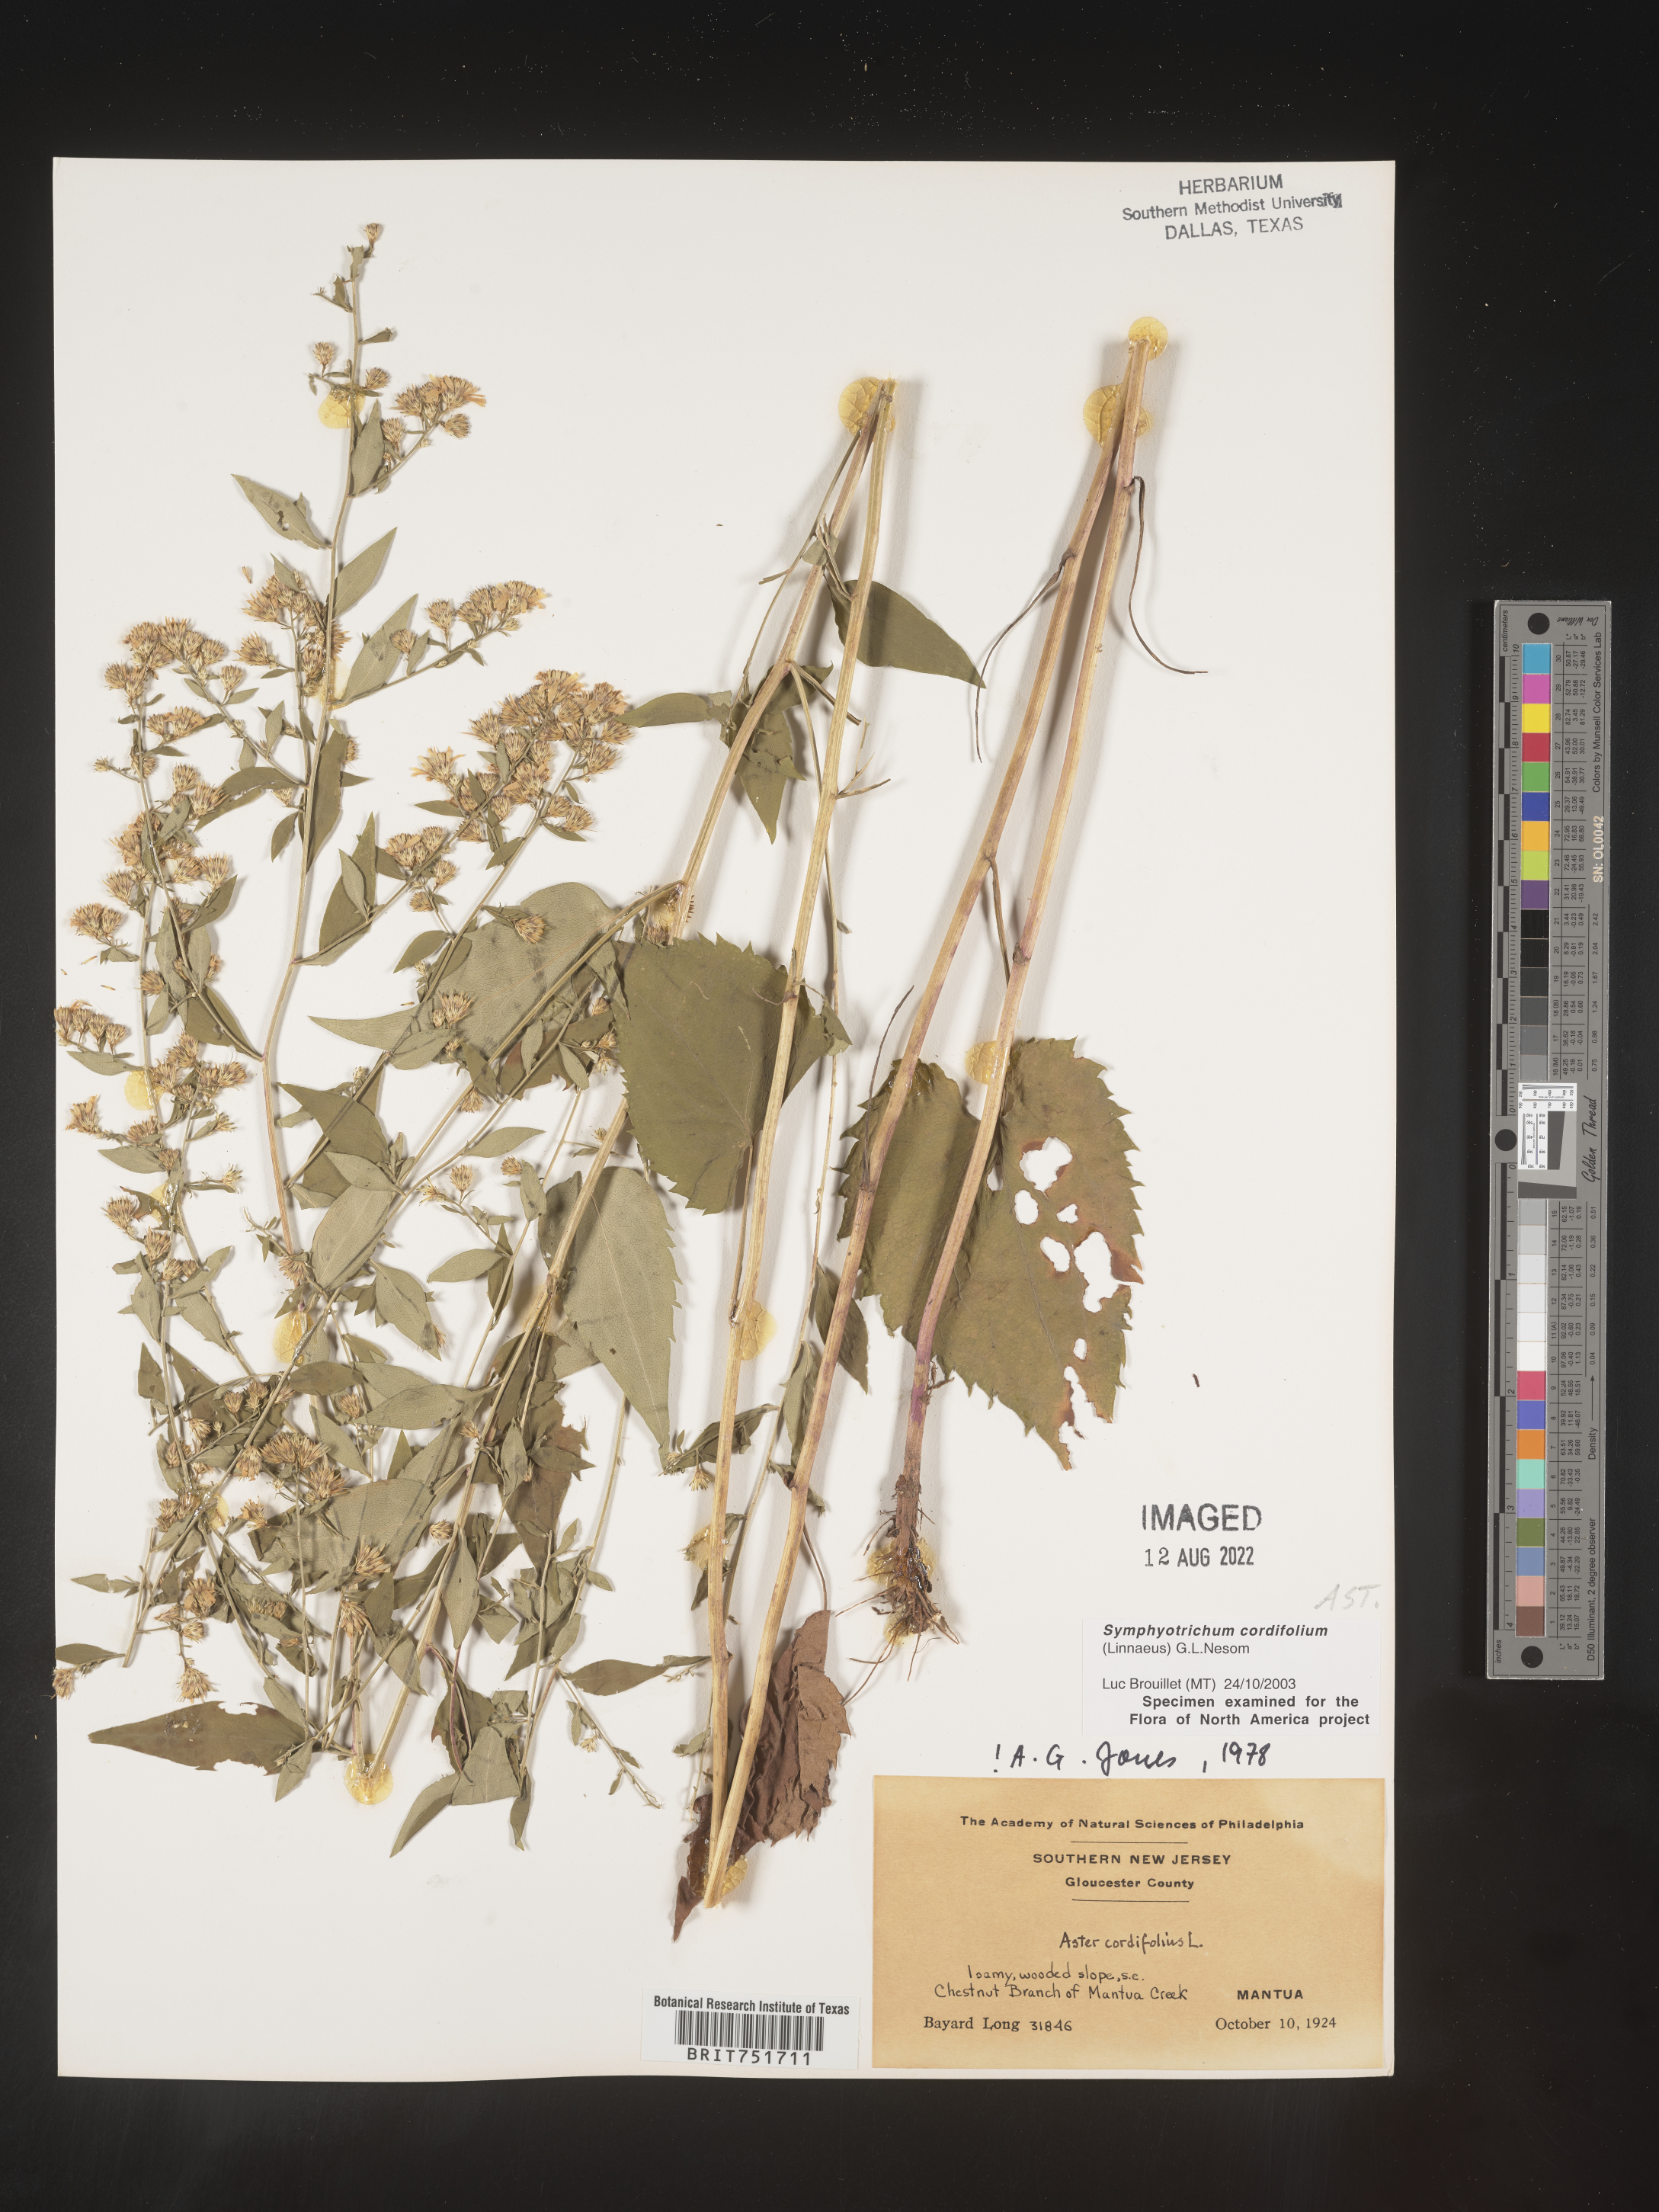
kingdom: Plantae
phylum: Tracheophyta
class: Magnoliopsida
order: Asterales
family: Asteraceae
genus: Symphyotrichum
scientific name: Symphyotrichum cordifolium
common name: Beeweed
